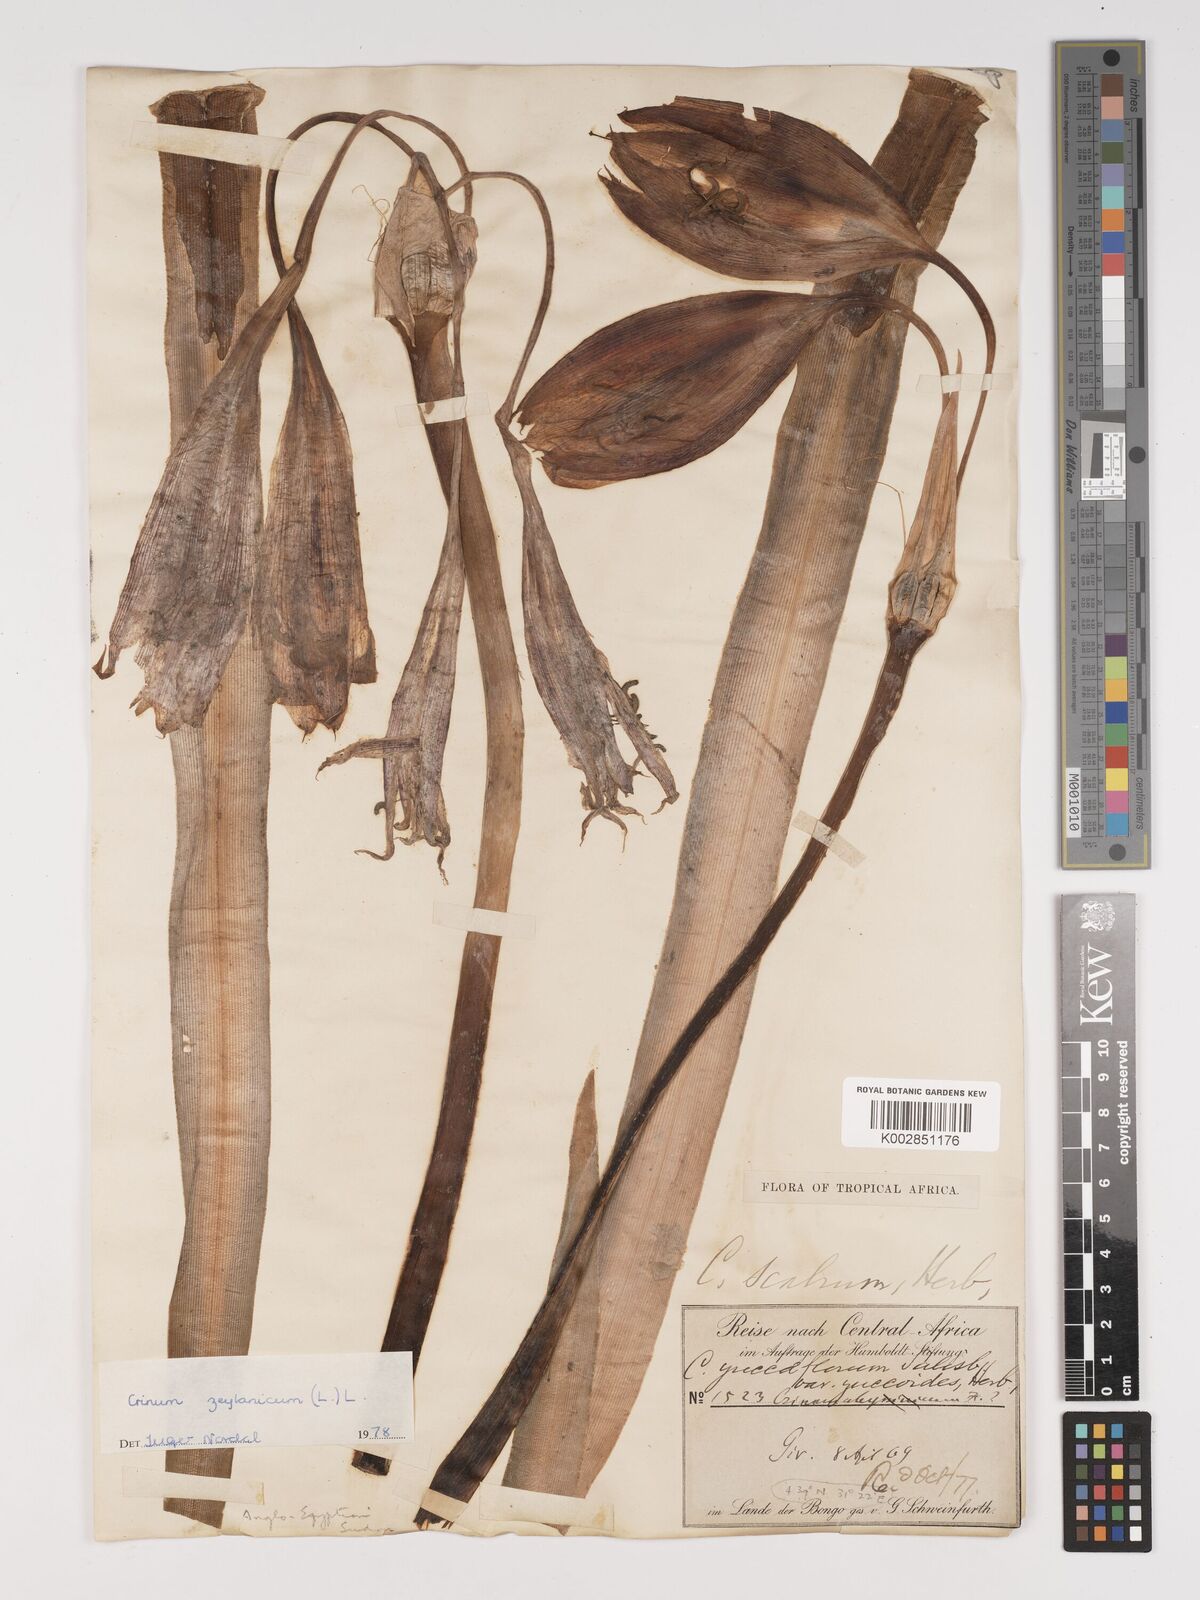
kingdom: Plantae
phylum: Tracheophyta
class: Liliopsida
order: Asparagales
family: Amaryllidaceae
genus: Crinum
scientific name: Crinum zeylanicum
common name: Ceylon swamplily
